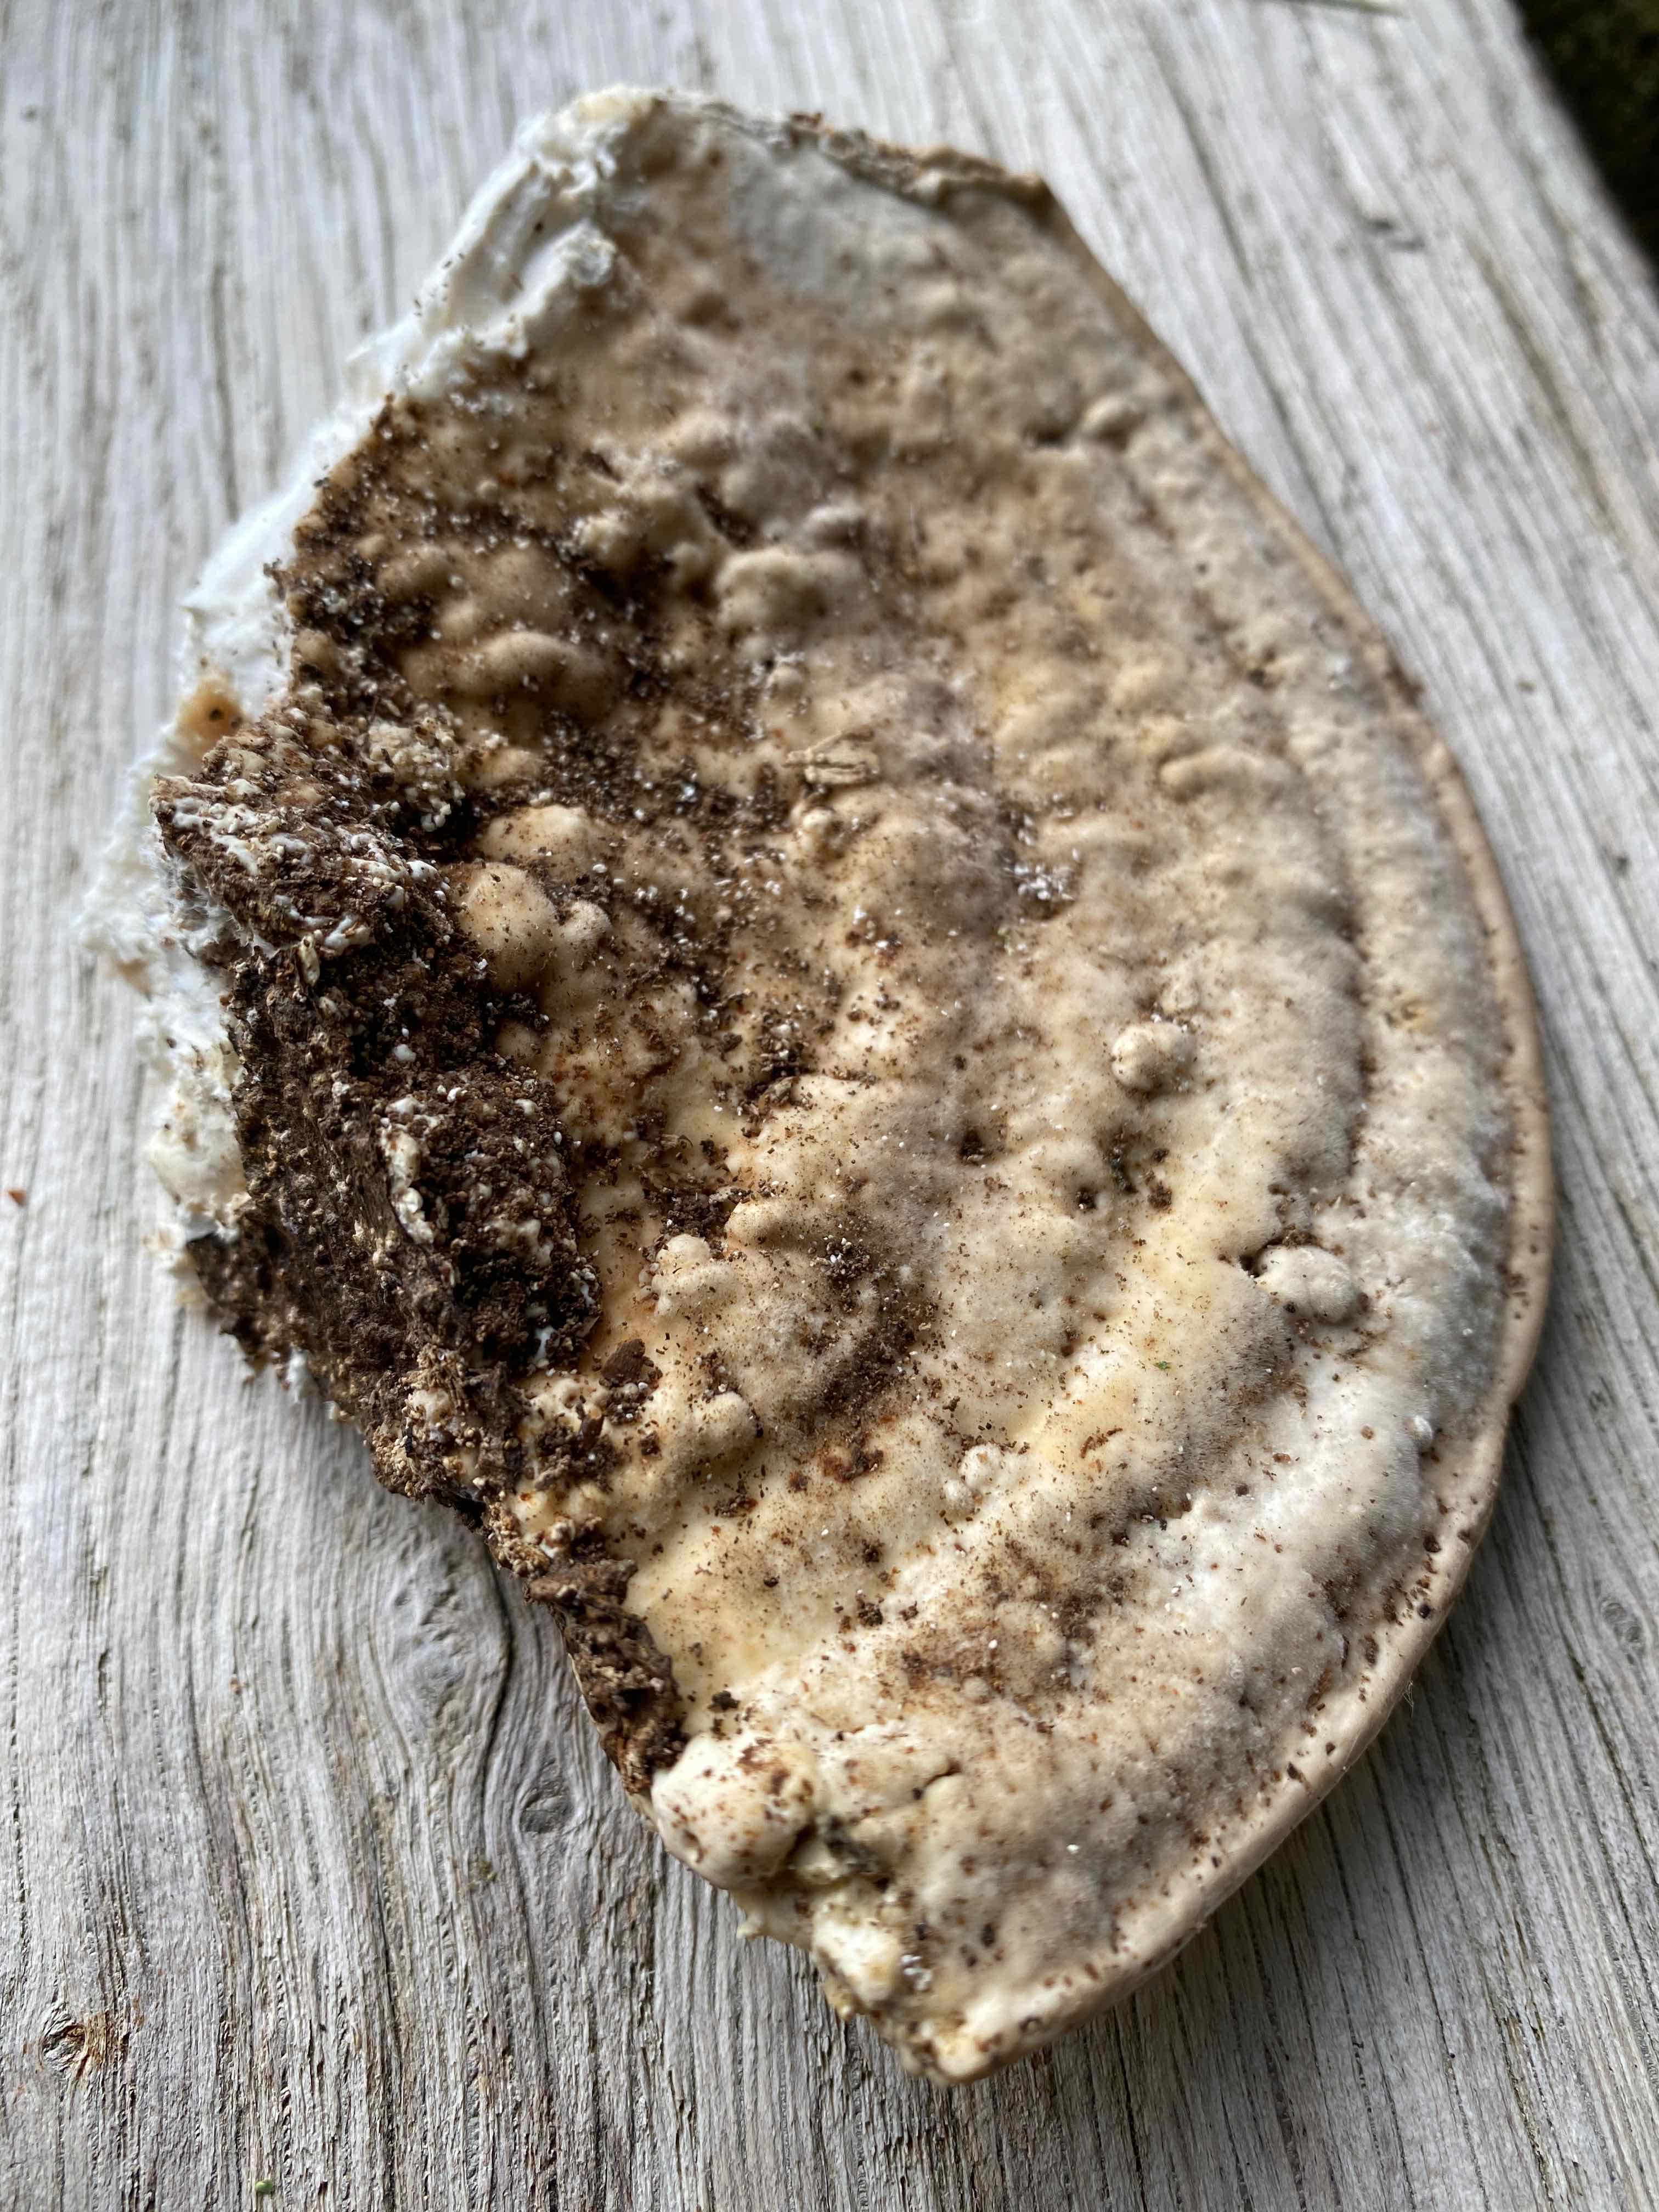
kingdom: Fungi
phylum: Basidiomycota
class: Agaricomycetes
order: Polyporales
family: Polyporaceae
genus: Trametes
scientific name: Trametes gibbosa
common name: puklet læderporesvamp
